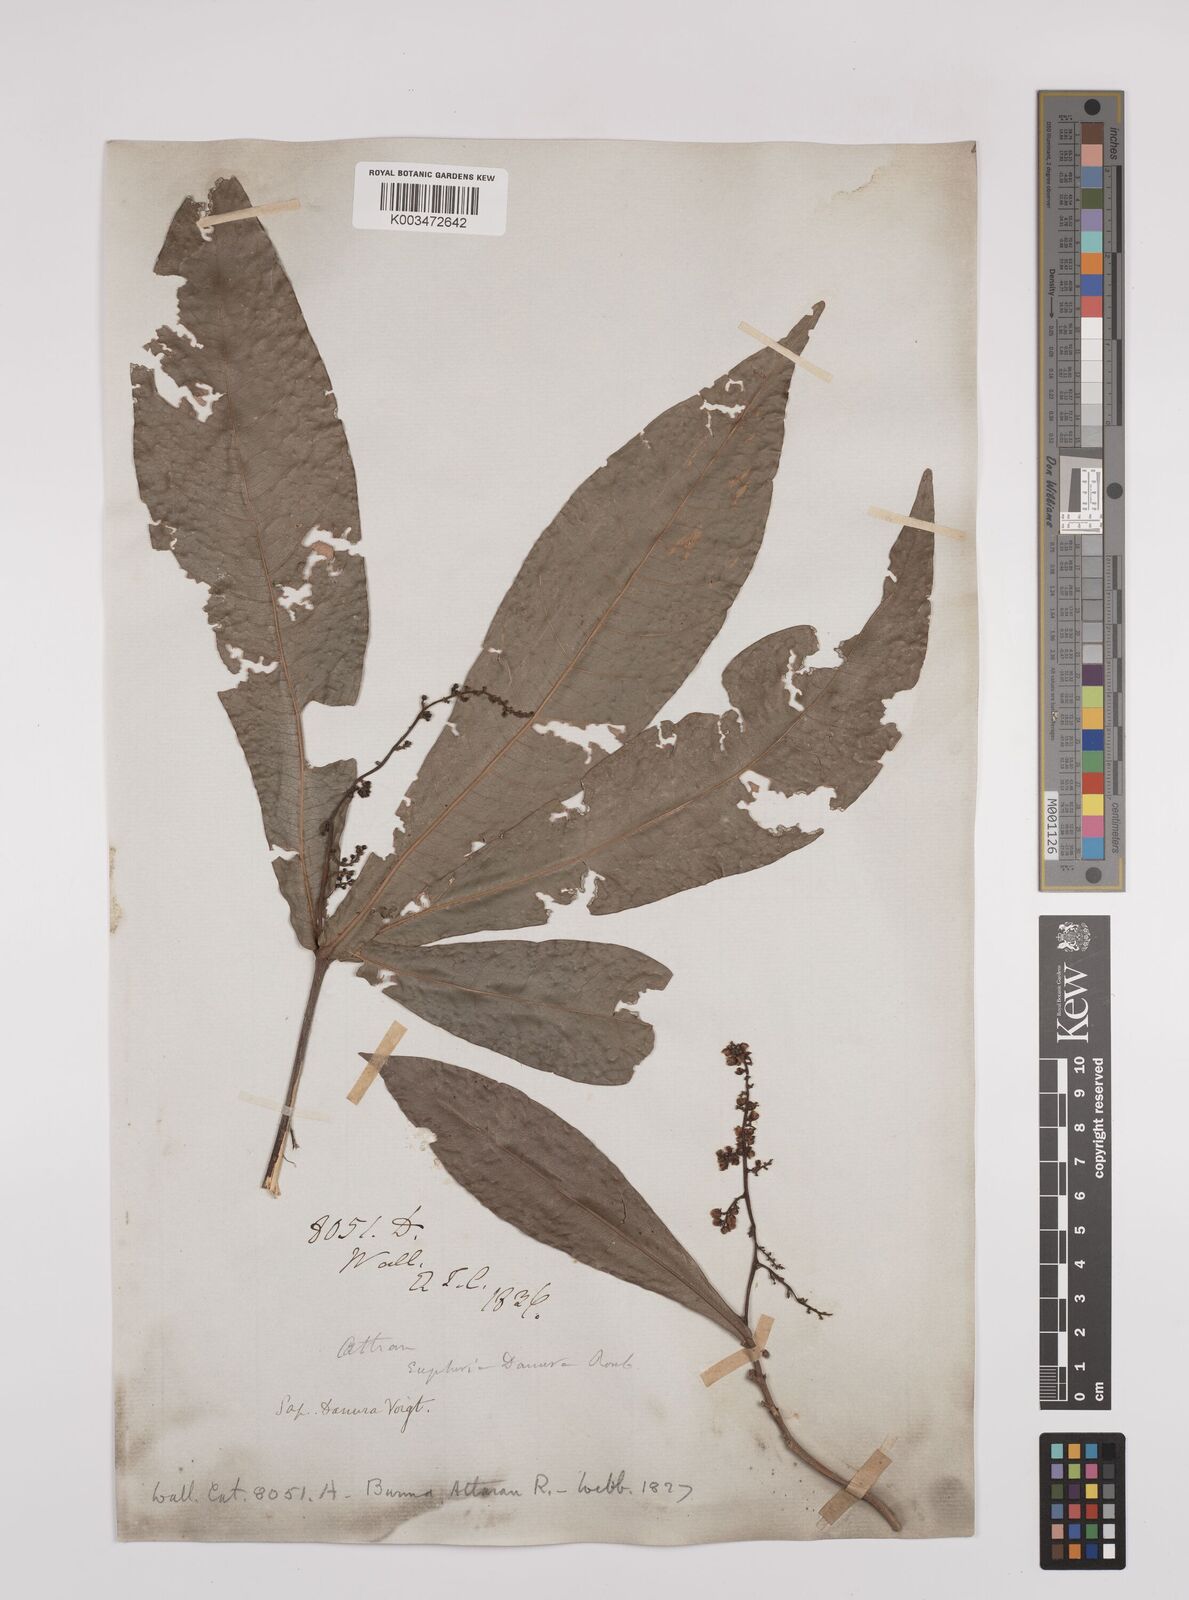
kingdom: Plantae
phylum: Tracheophyta
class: Magnoliopsida
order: Sapindales
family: Sapindaceae
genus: Lepisanthes
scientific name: Lepisanthes senegalensis
